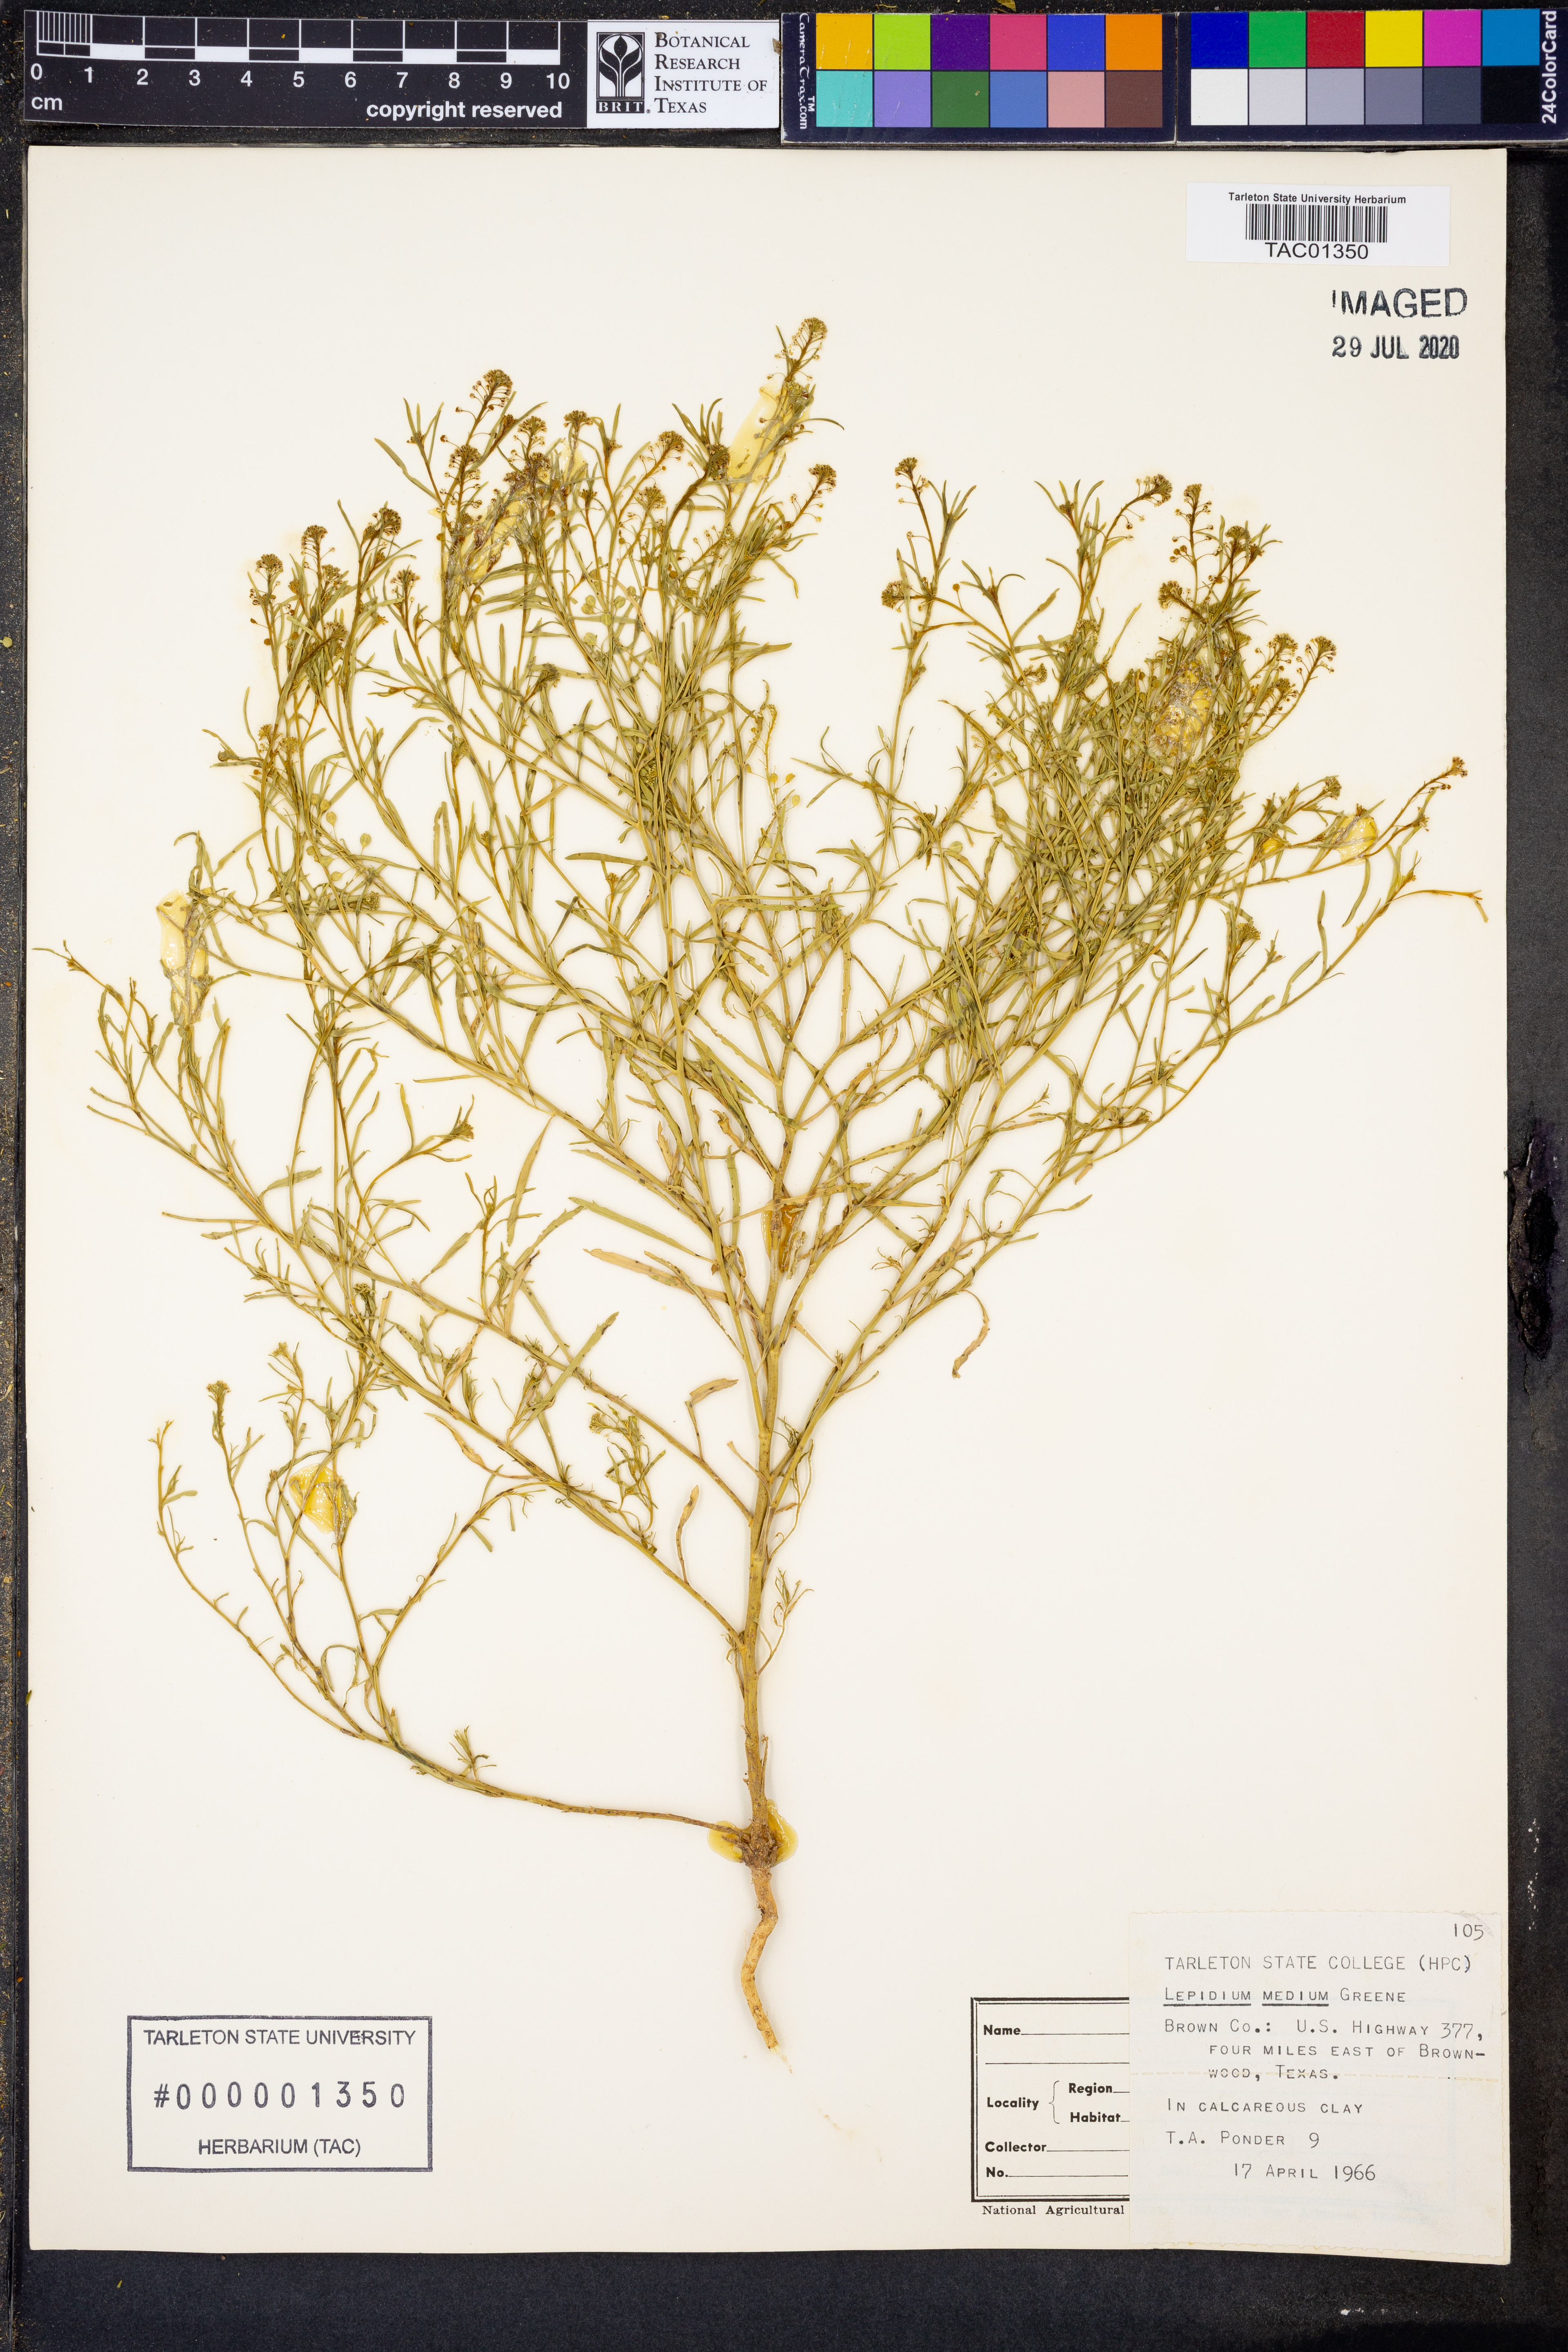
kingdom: Plantae
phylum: Tracheophyta
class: Magnoliopsida
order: Brassicales
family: Brassicaceae
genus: Lepidium
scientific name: Lepidium virginicum
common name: Least pepperwort
